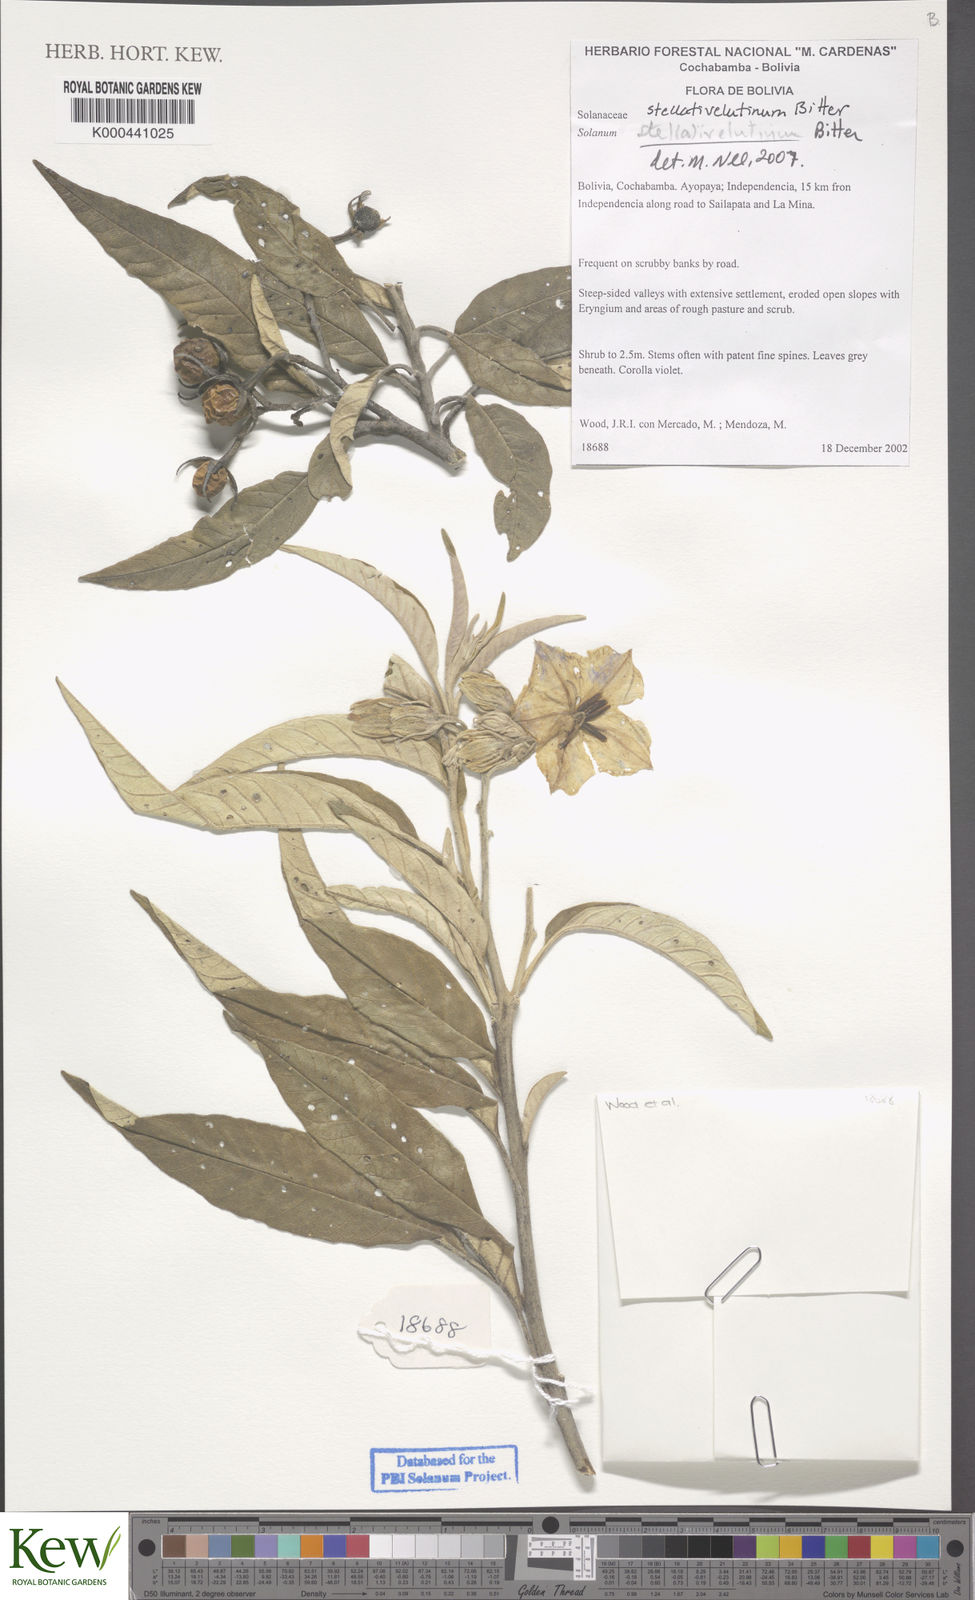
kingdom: Plantae
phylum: Tracheophyta
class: Magnoliopsida
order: Solanales
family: Solanaceae
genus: Solanum
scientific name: Solanum stellativelutinum
